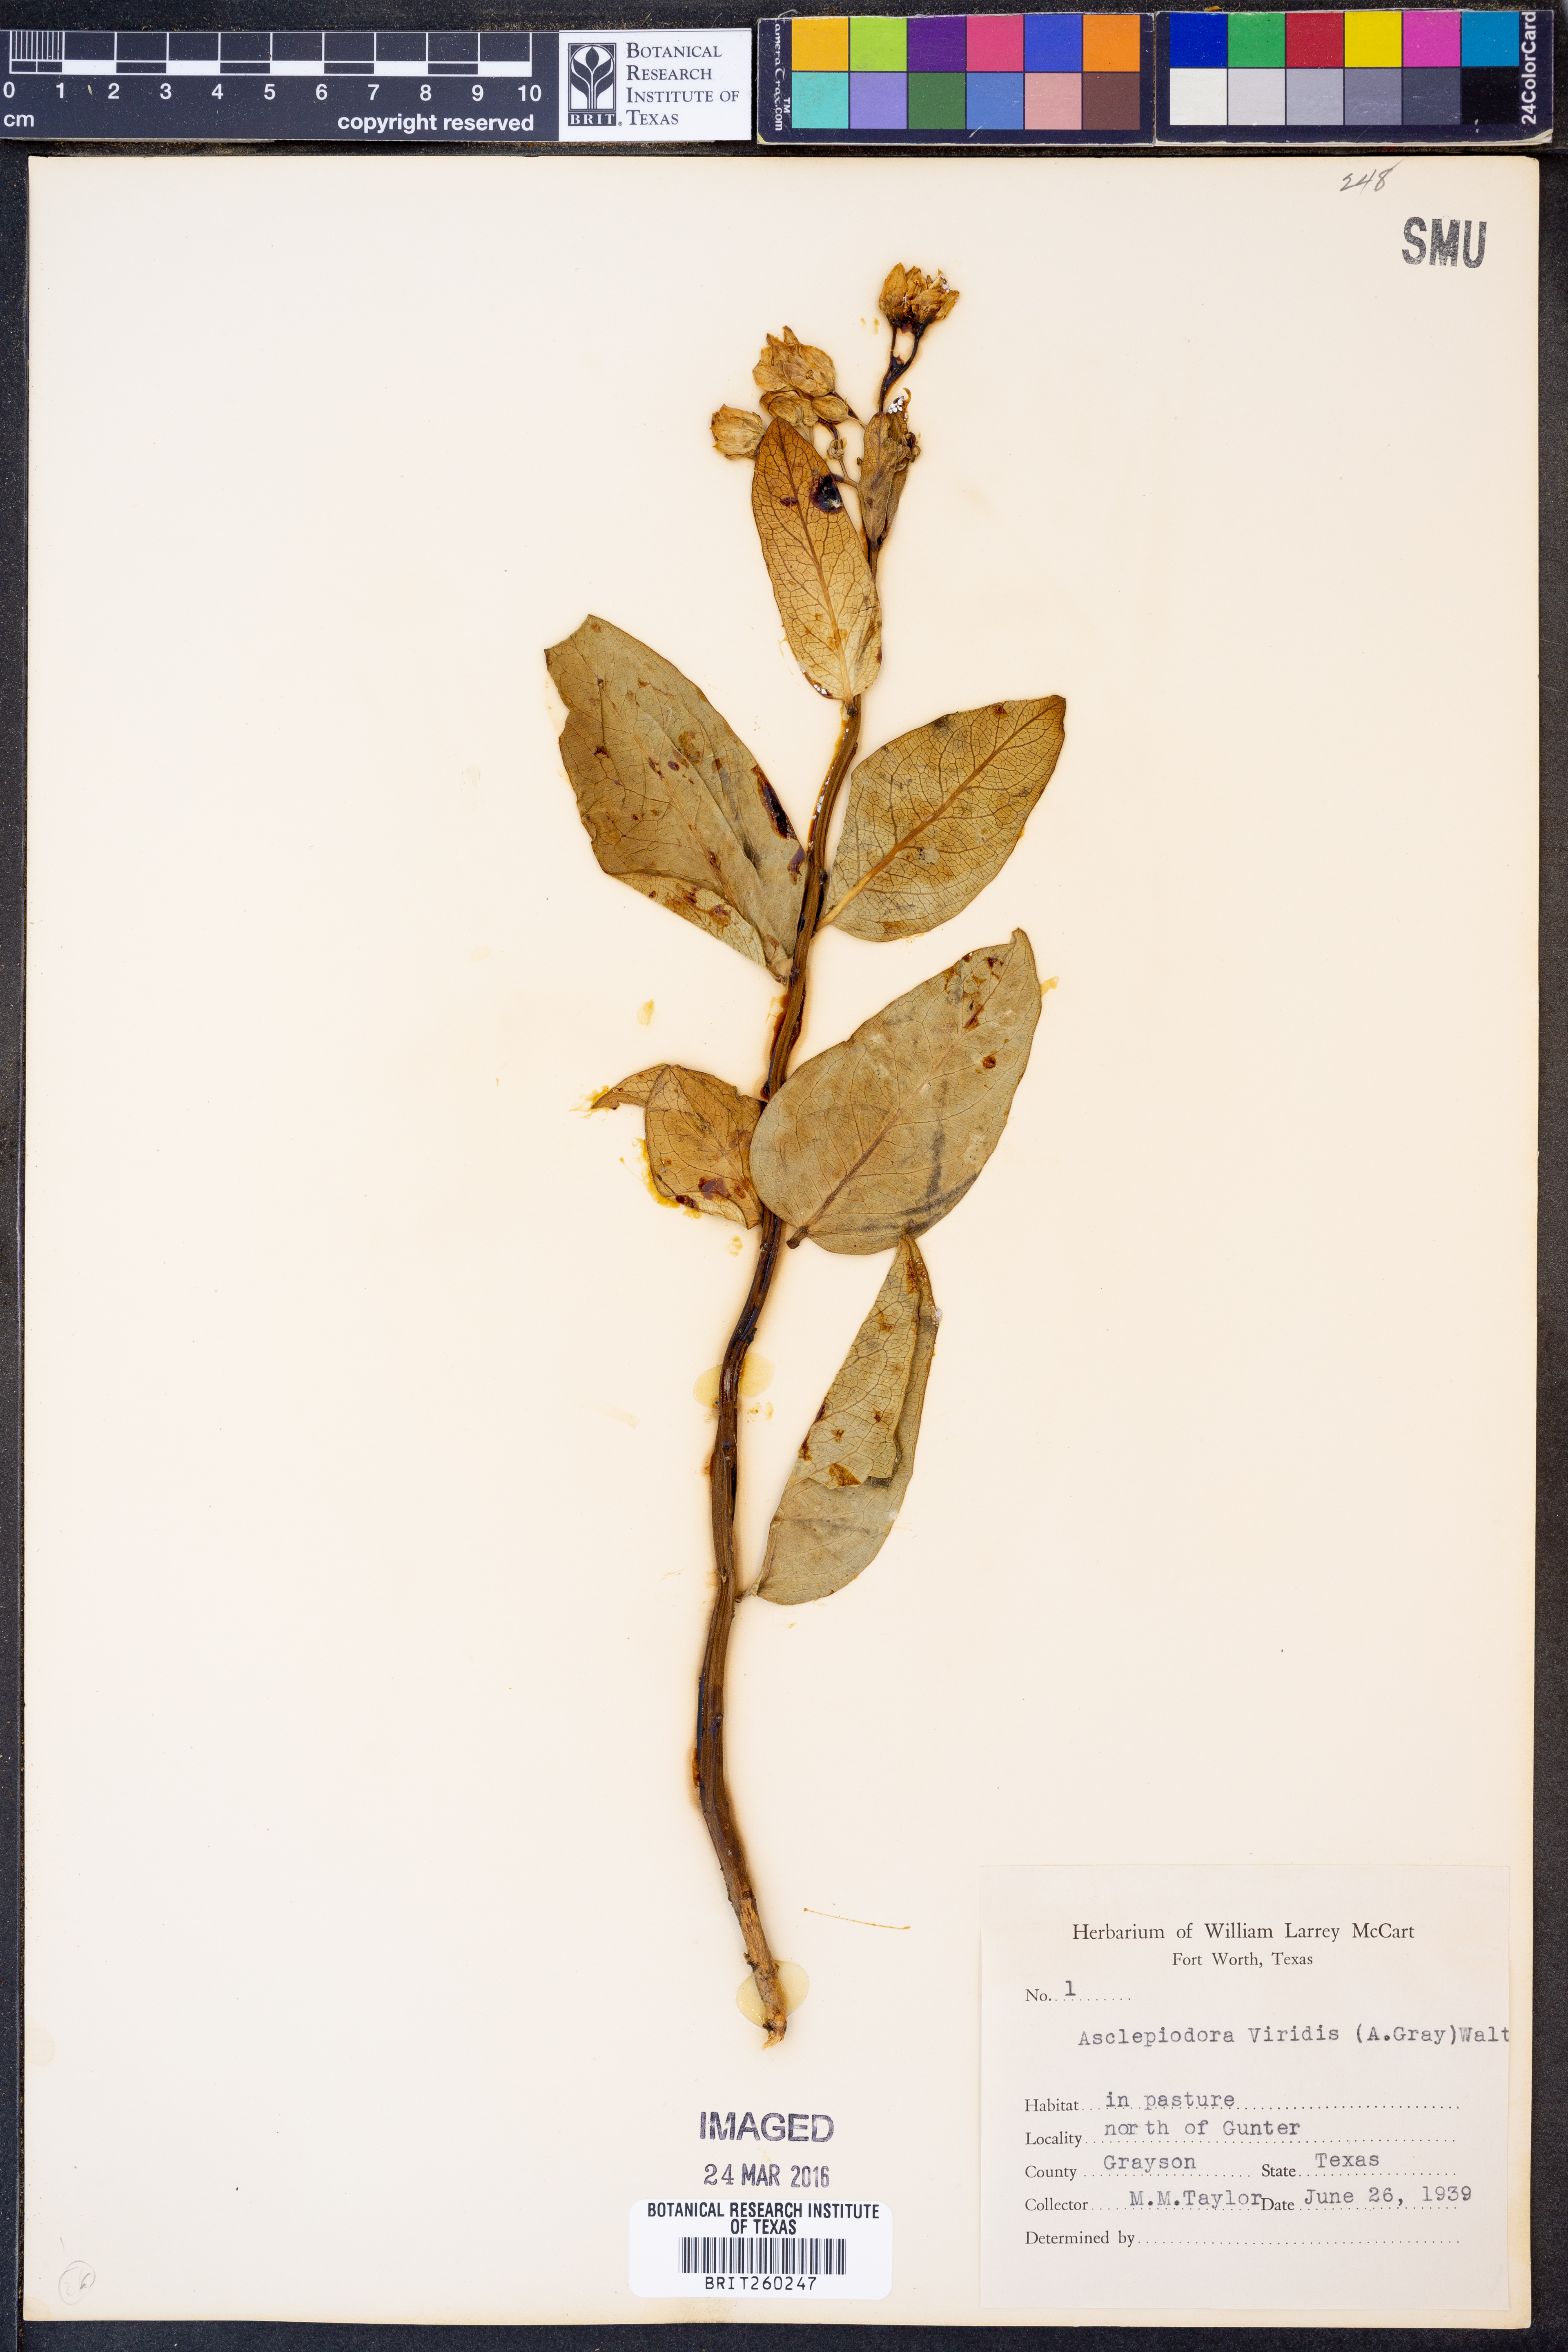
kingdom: Plantae
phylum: Tracheophyta
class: Magnoliopsida
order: Gentianales
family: Apocynaceae
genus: Asclepias
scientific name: Asclepias viridis
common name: Antelope-horns
